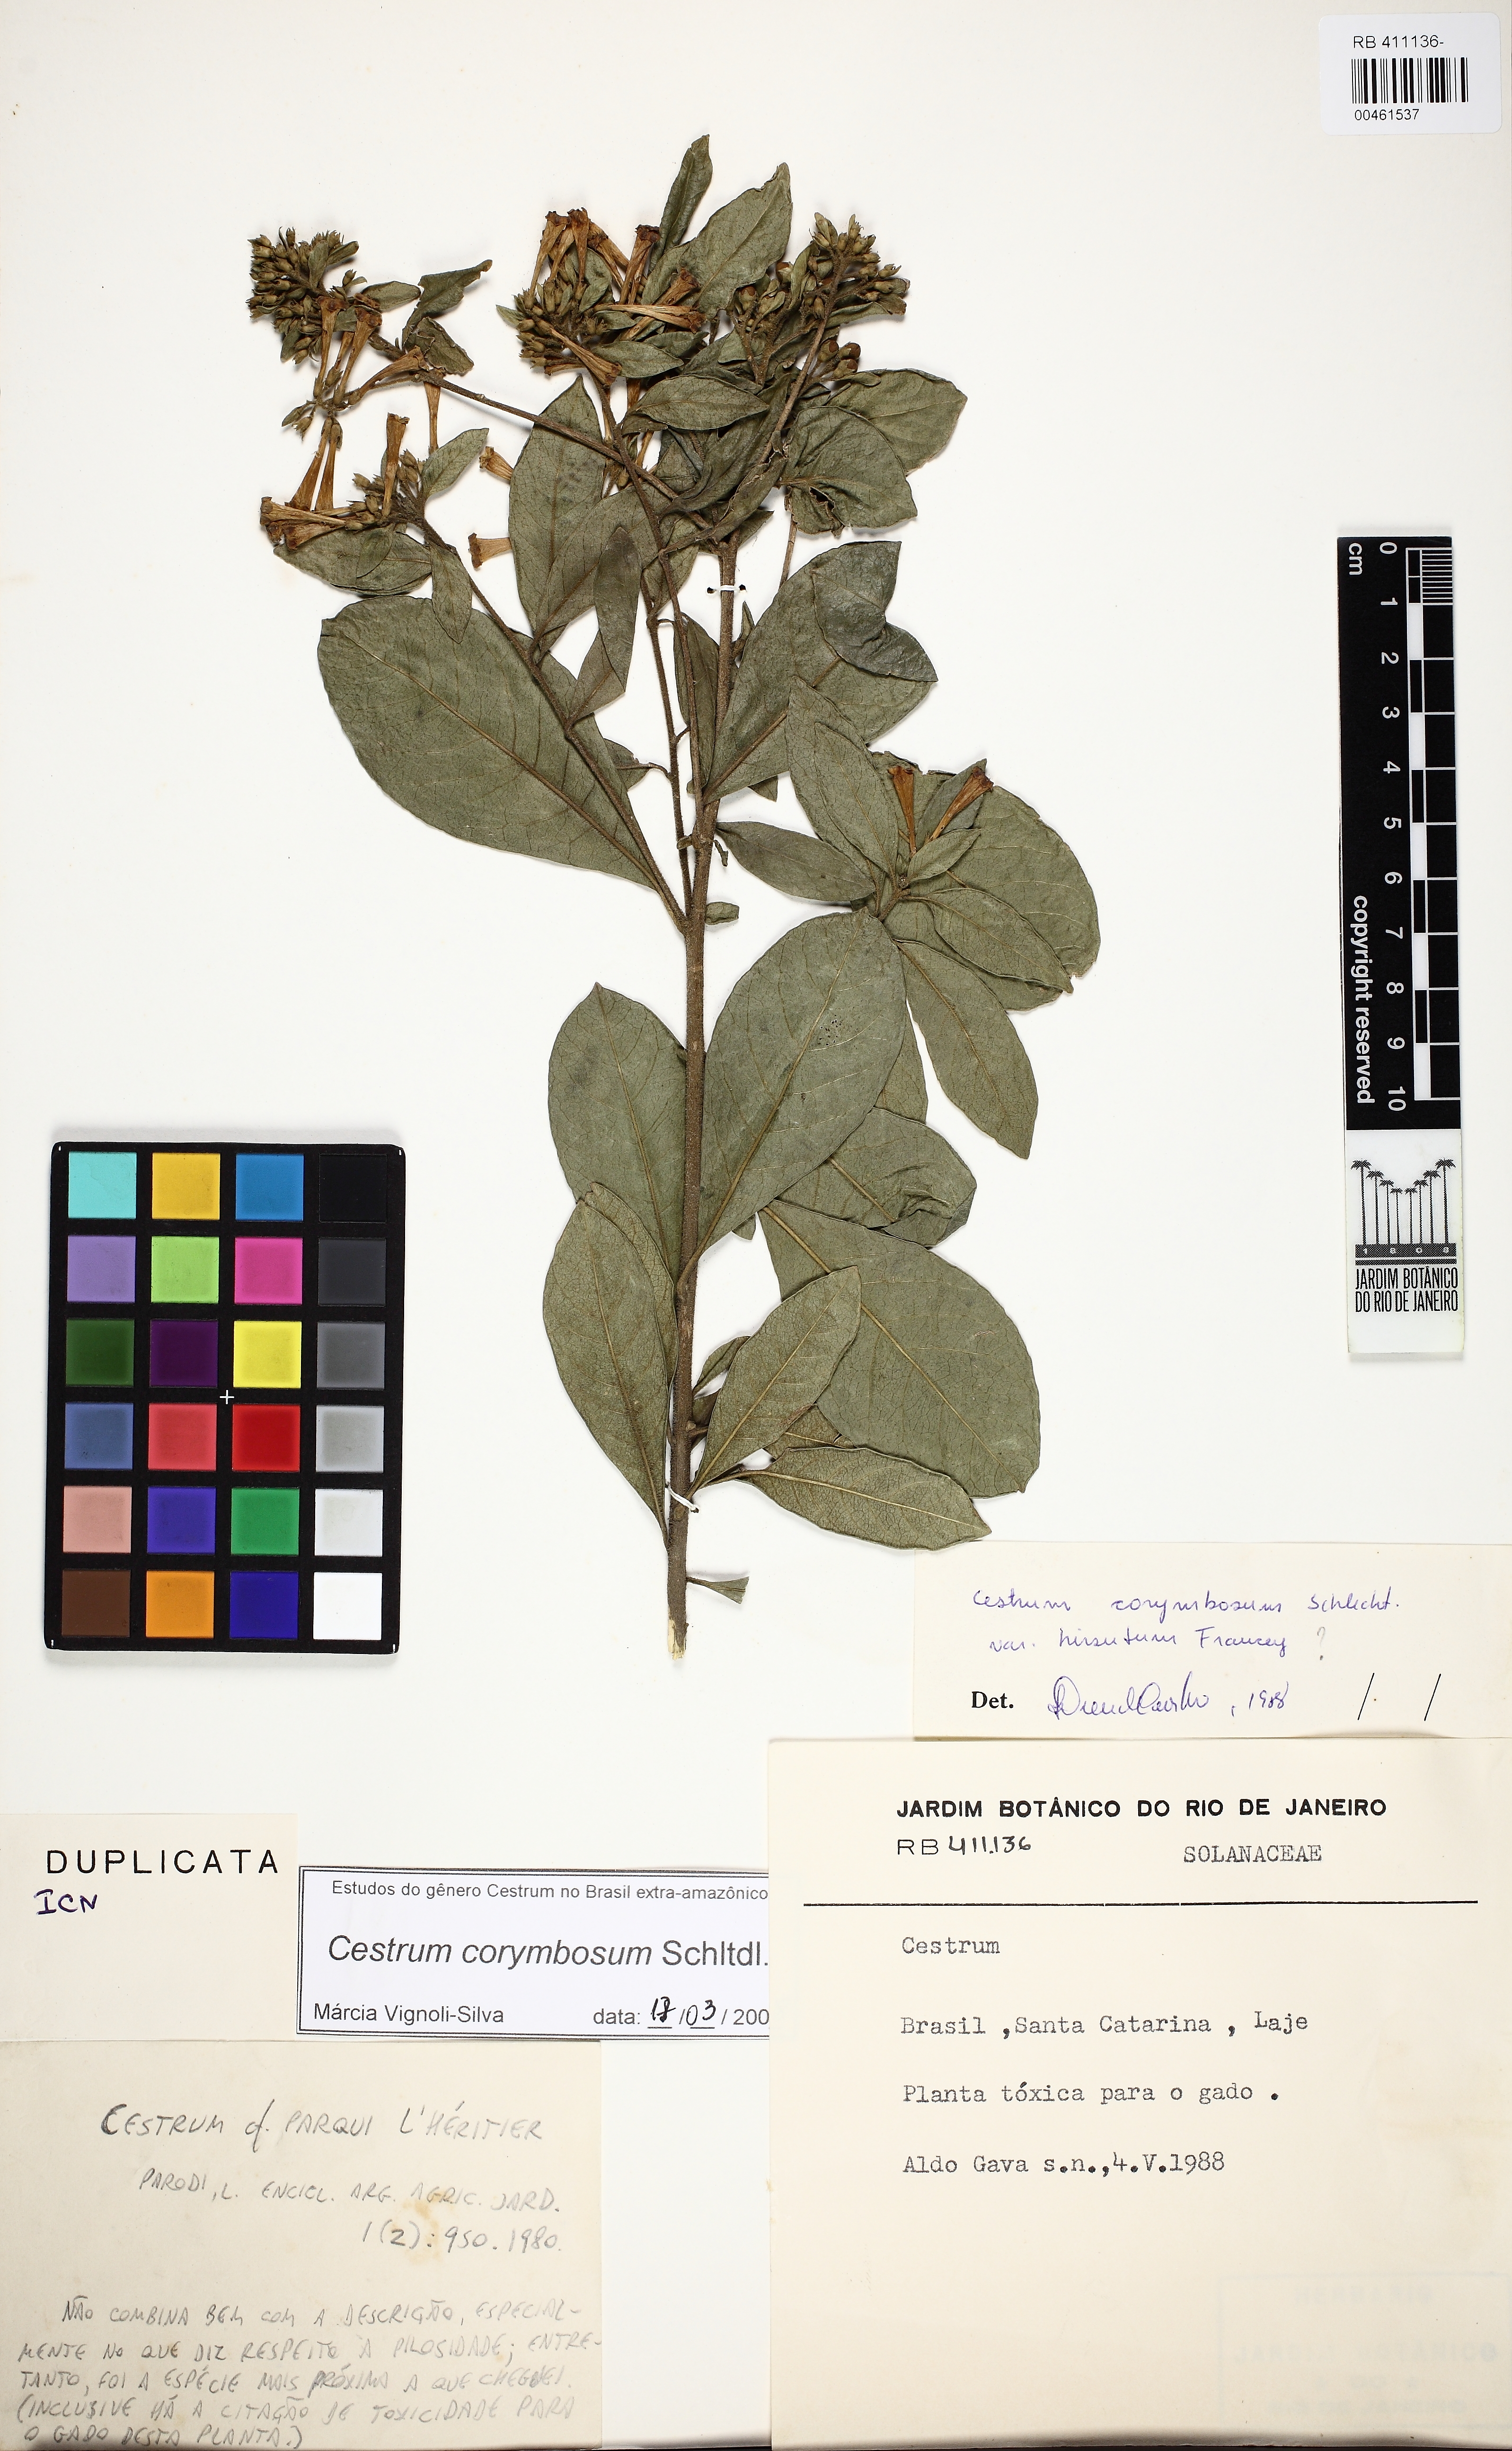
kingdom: Plantae
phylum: Tracheophyta
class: Magnoliopsida
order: Solanales
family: Solanaceae
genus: Cestrum
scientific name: Cestrum corymbosum
